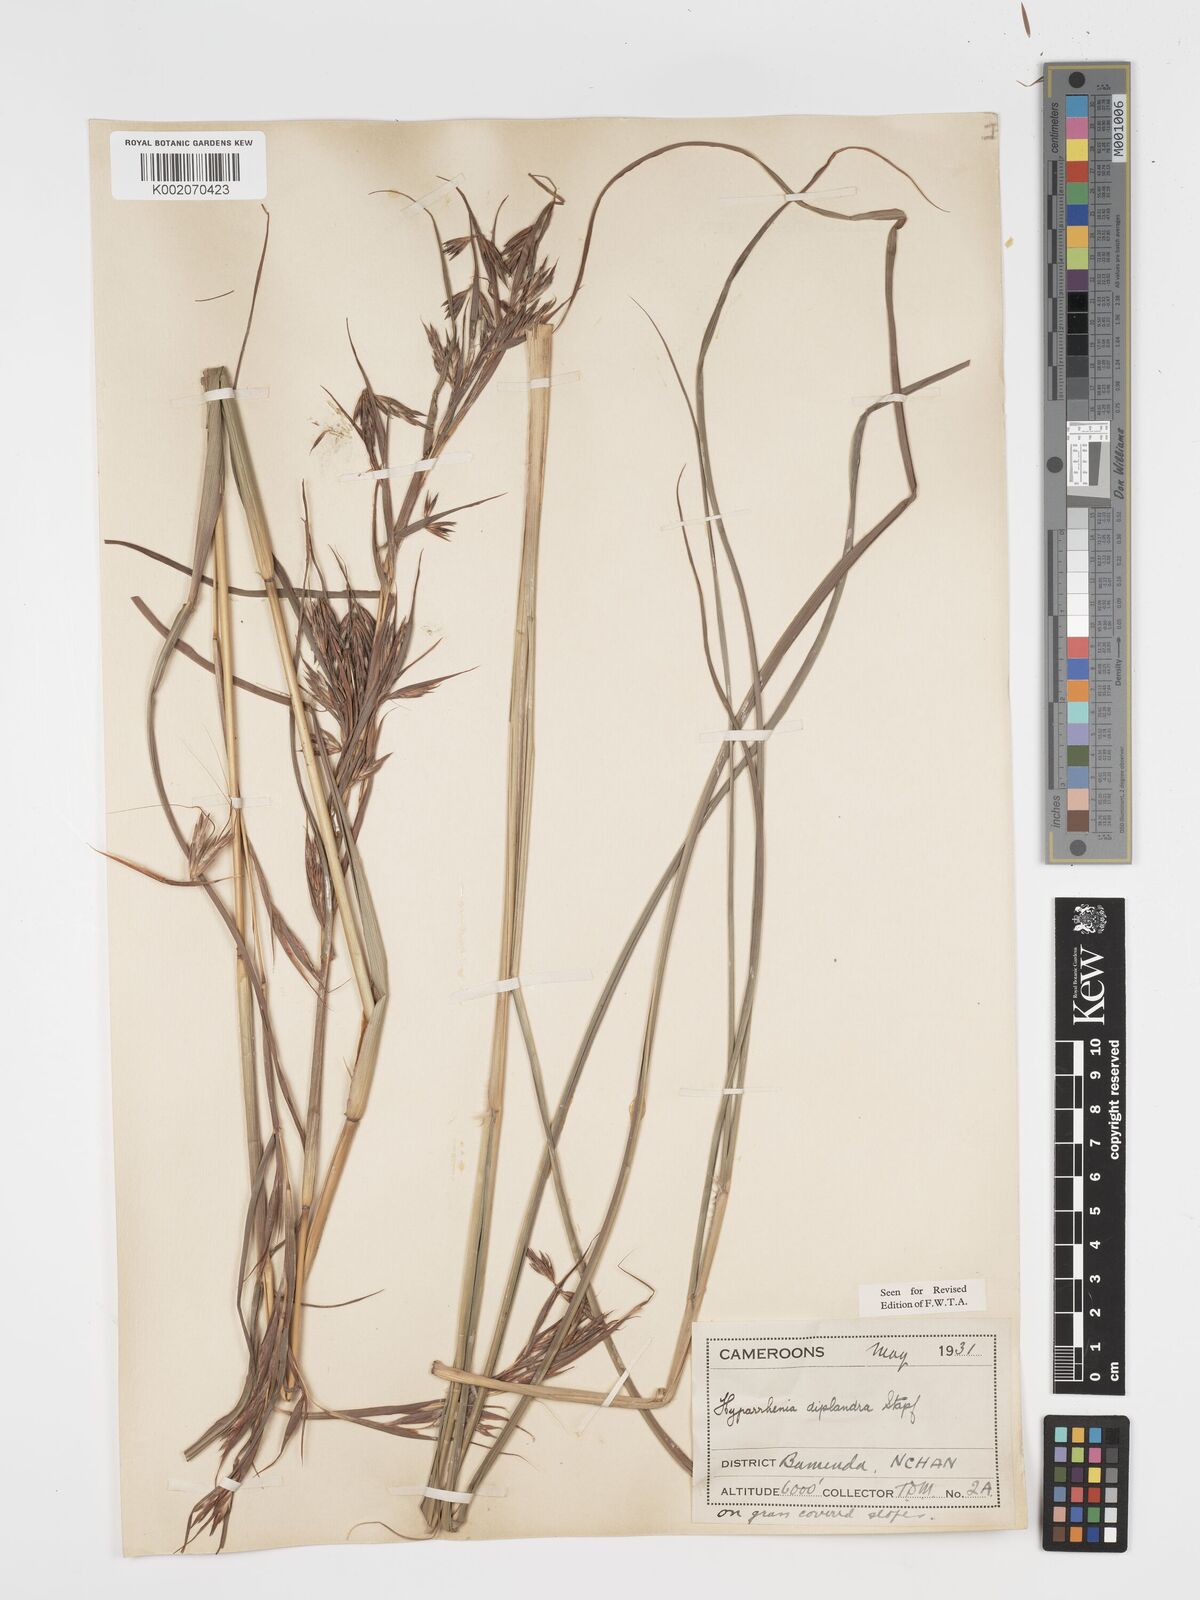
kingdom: Plantae
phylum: Tracheophyta
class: Liliopsida
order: Poales
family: Poaceae
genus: Hyparrhenia
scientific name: Hyparrhenia diplandra
